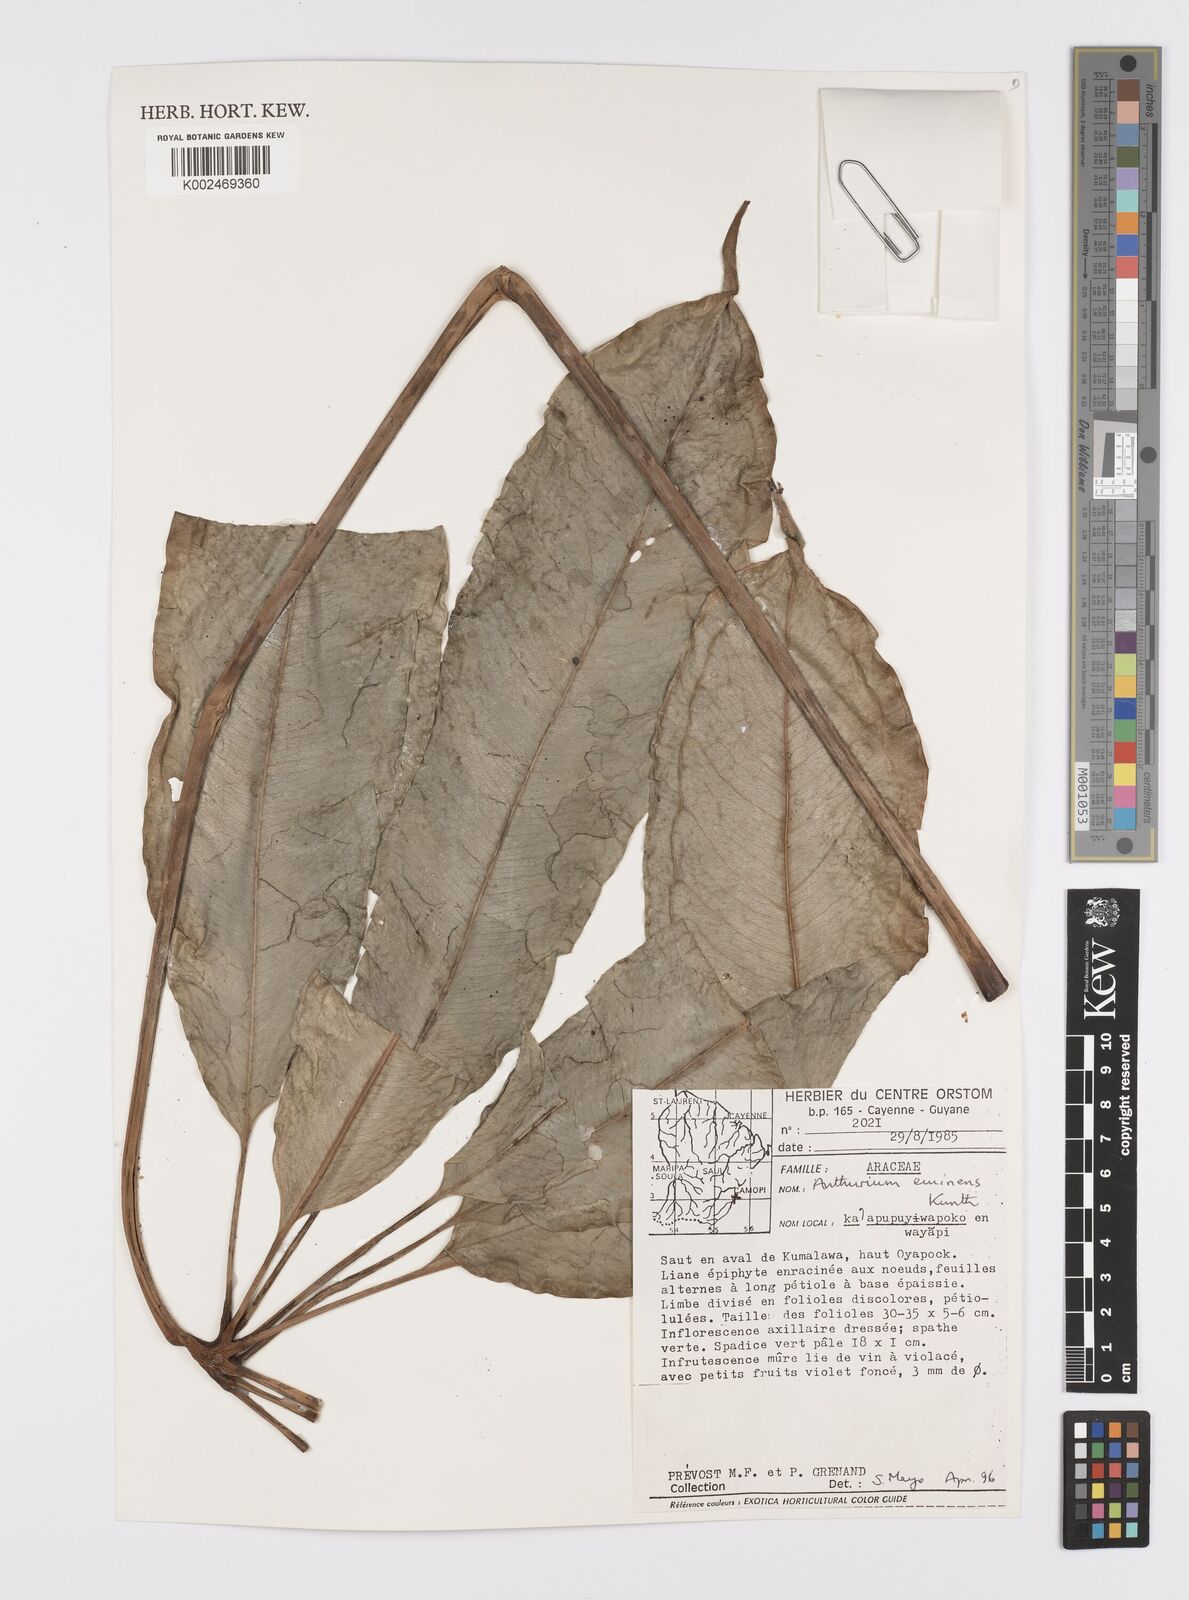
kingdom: Plantae
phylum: Tracheophyta
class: Liliopsida
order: Alismatales
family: Araceae
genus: Anthurium
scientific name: Anthurium eminens
